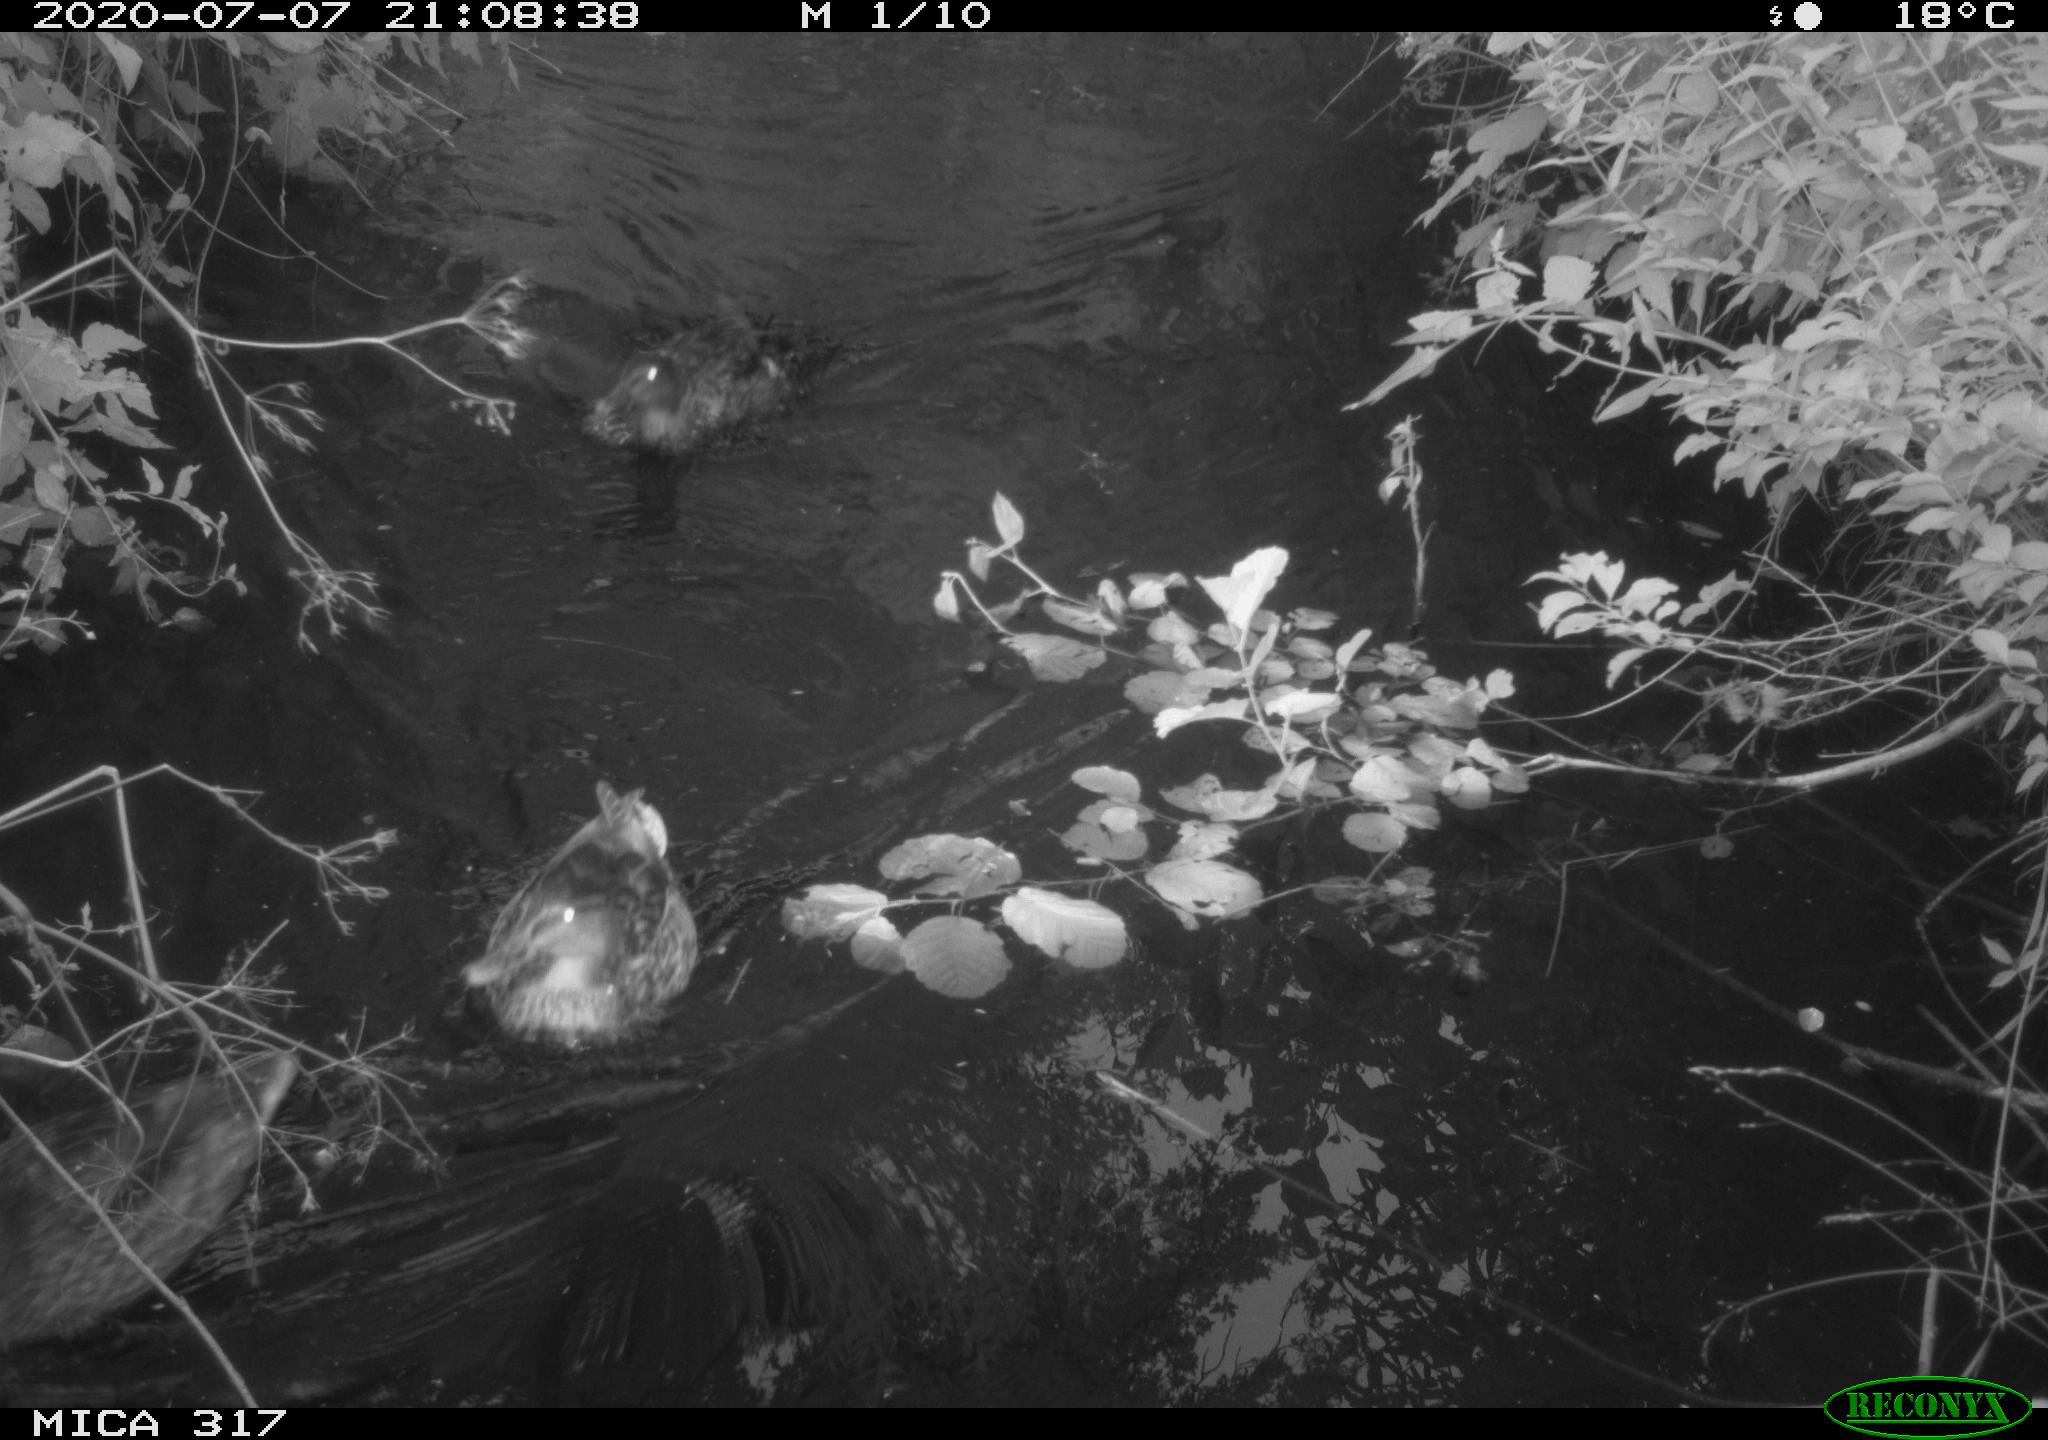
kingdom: Animalia
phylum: Chordata
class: Aves
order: Anseriformes
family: Anatidae
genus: Anas
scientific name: Anas platyrhynchos
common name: Mallard
